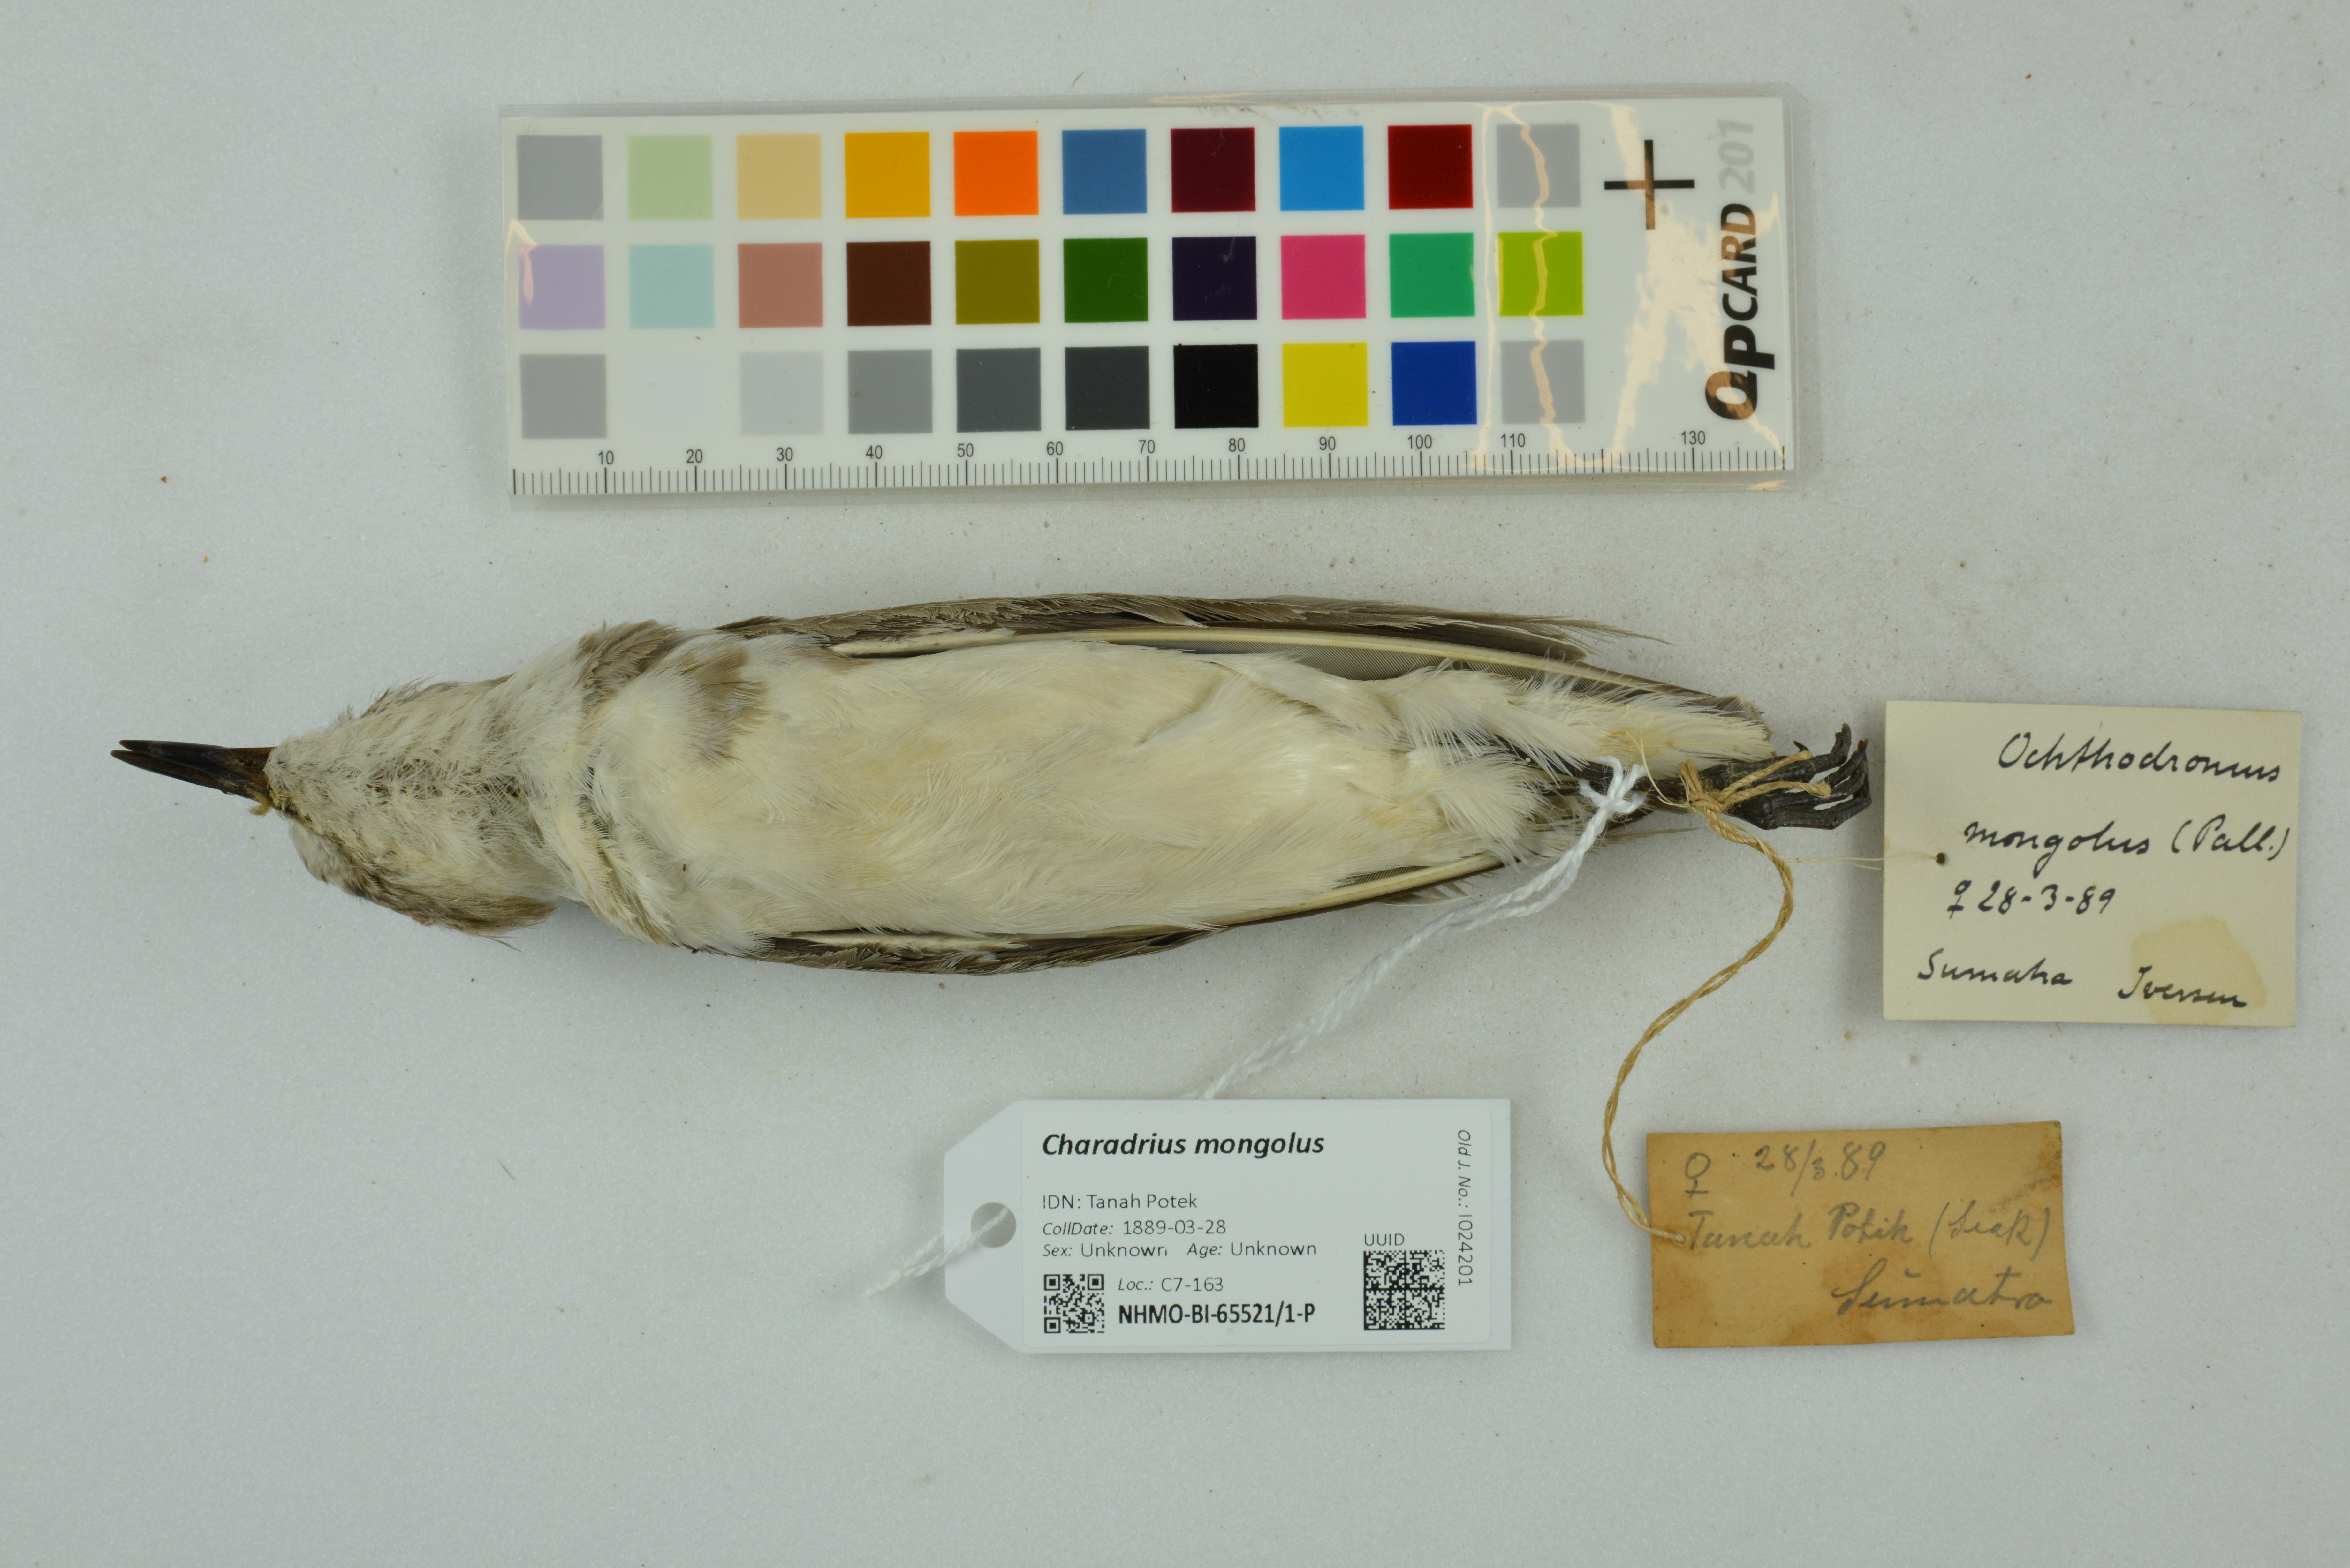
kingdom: Animalia
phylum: Chordata
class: Aves
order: Charadriiformes
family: Charadriidae
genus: Charadrius
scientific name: Charadrius mongolus
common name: Lesser sand-plover
